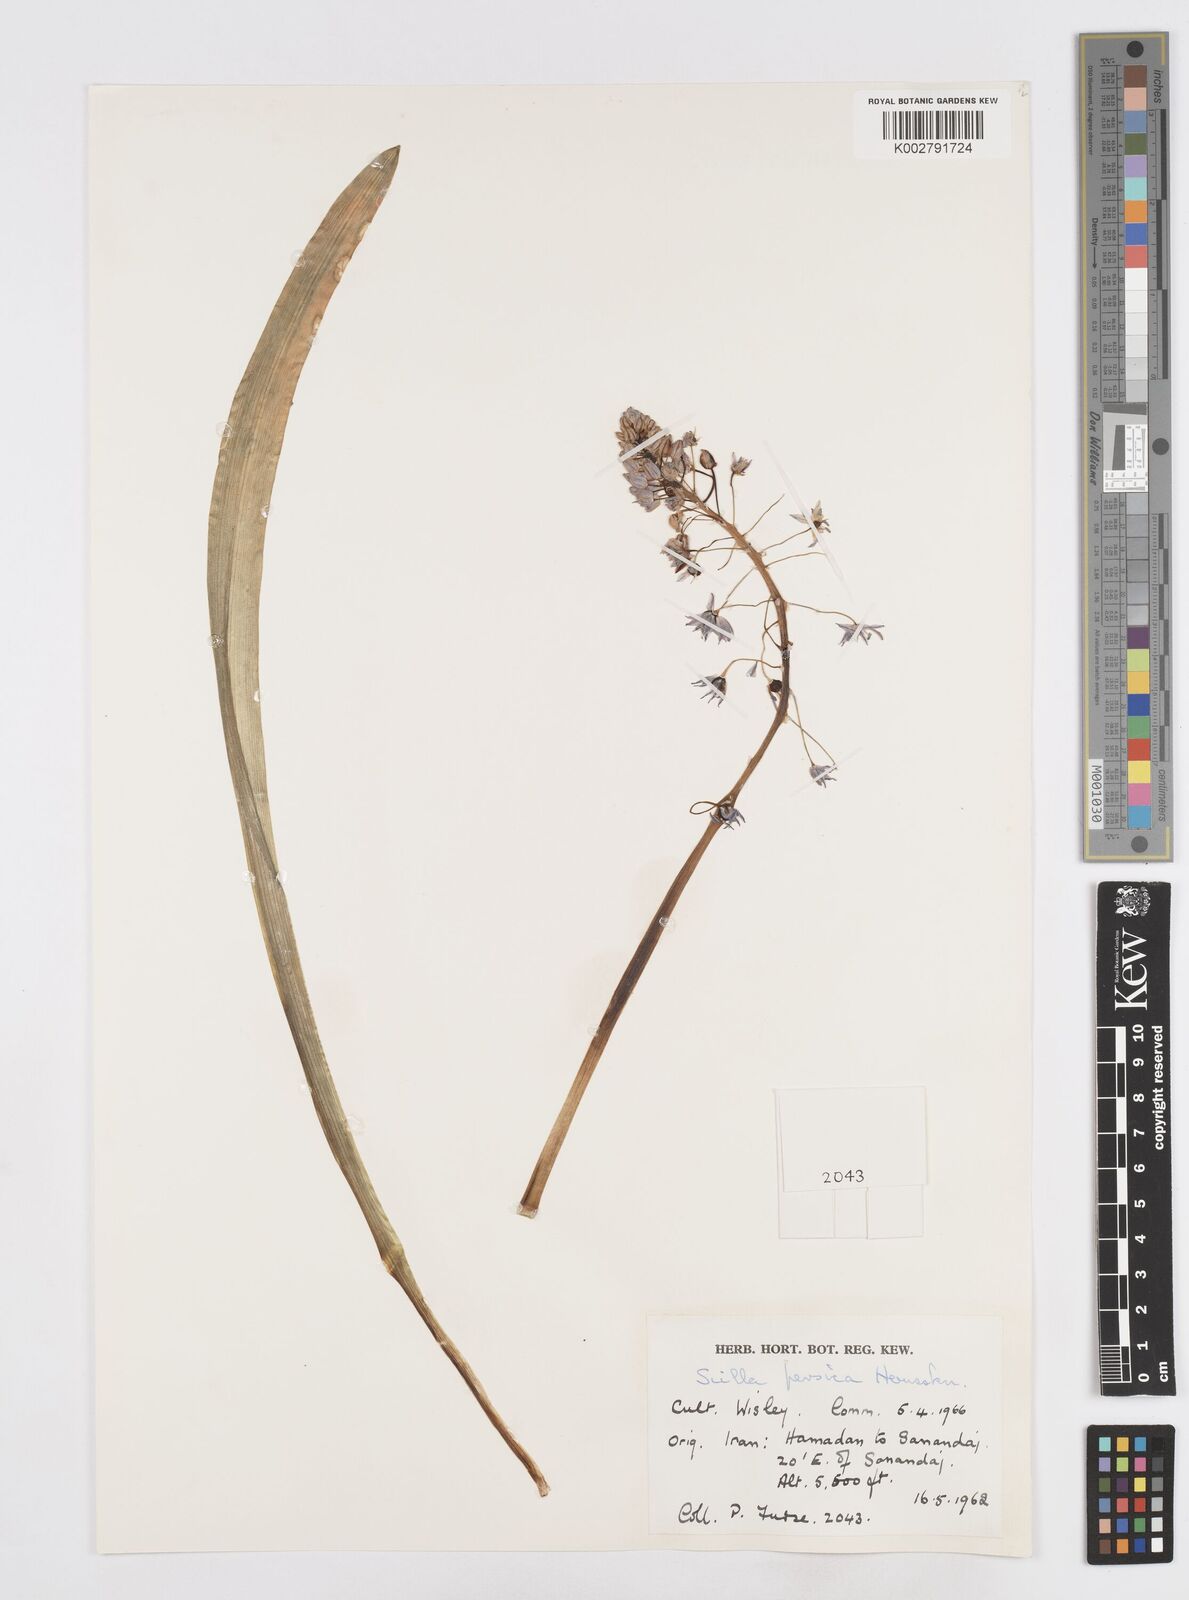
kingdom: Plantae
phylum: Tracheophyta
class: Liliopsida
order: Asparagales
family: Asparagaceae
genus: Zagrosia
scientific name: Zagrosia persica
